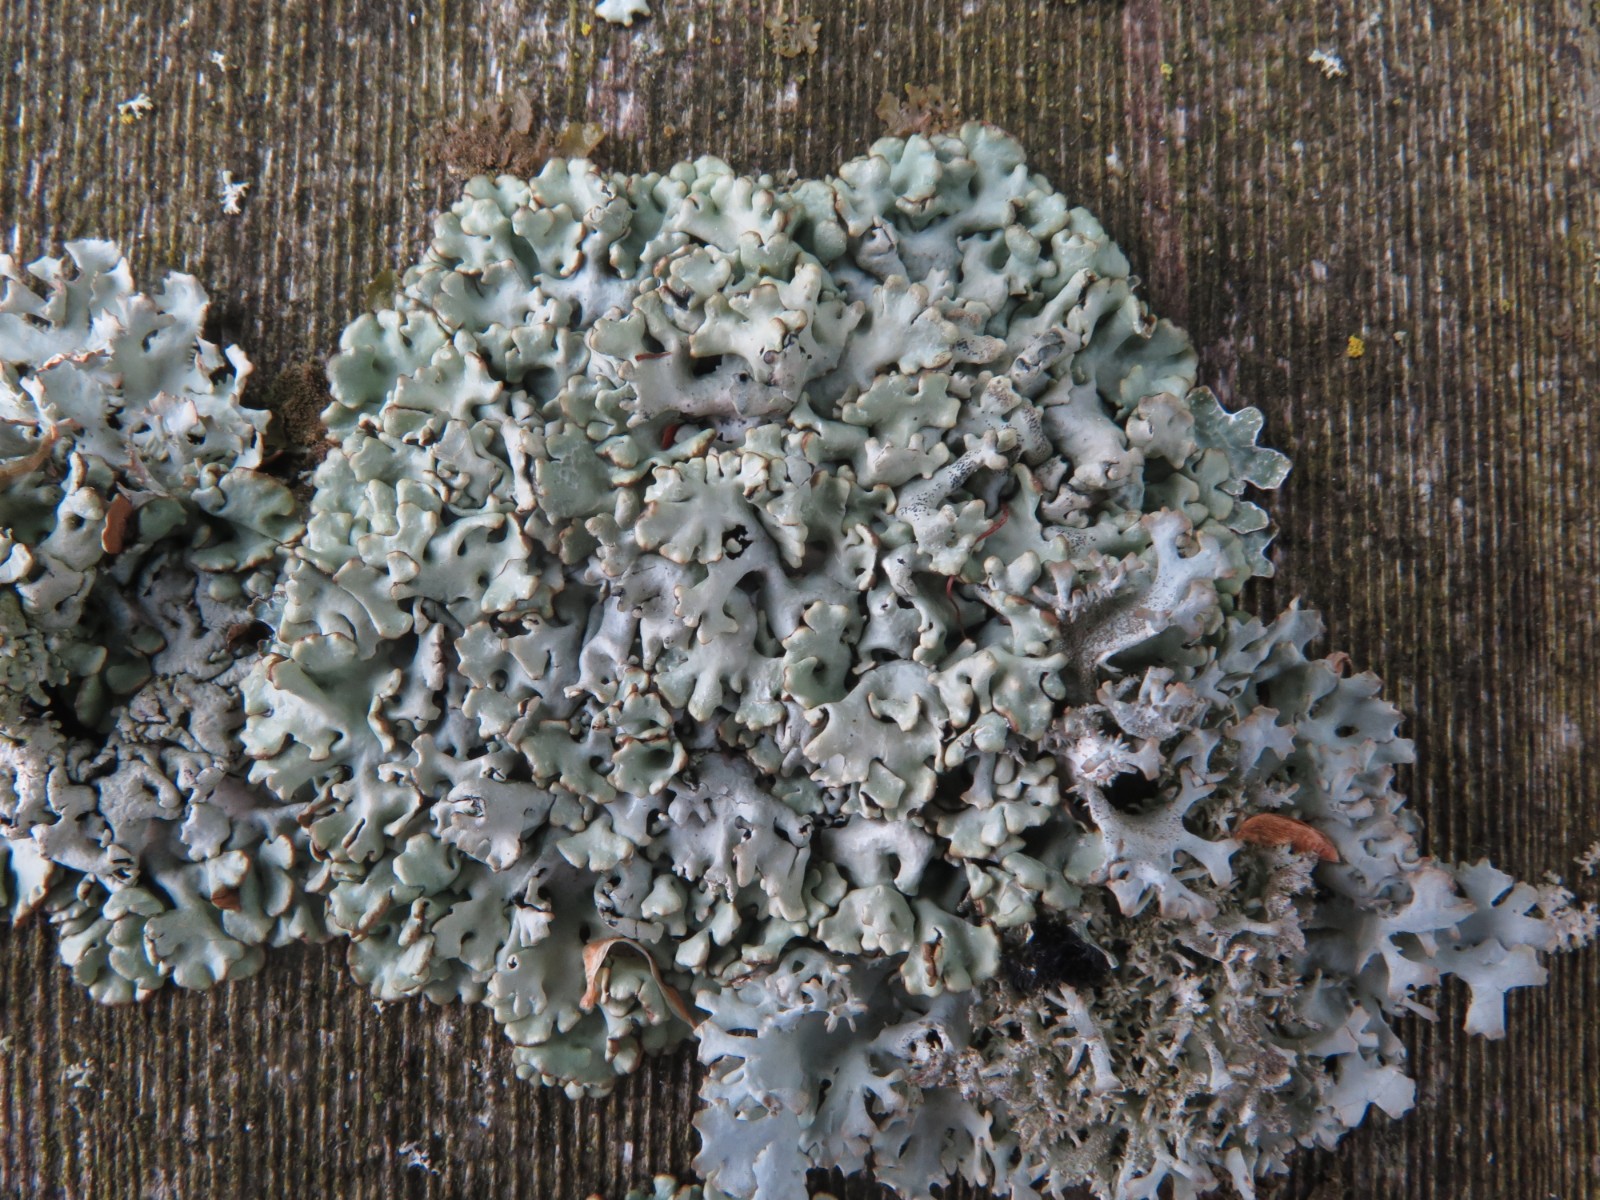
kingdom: Fungi
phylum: Ascomycota
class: Lecanoromycetes
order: Lecanorales
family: Parmeliaceae
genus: Hypogymnia
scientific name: Hypogymnia physodes
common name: almindelig kvistlav
